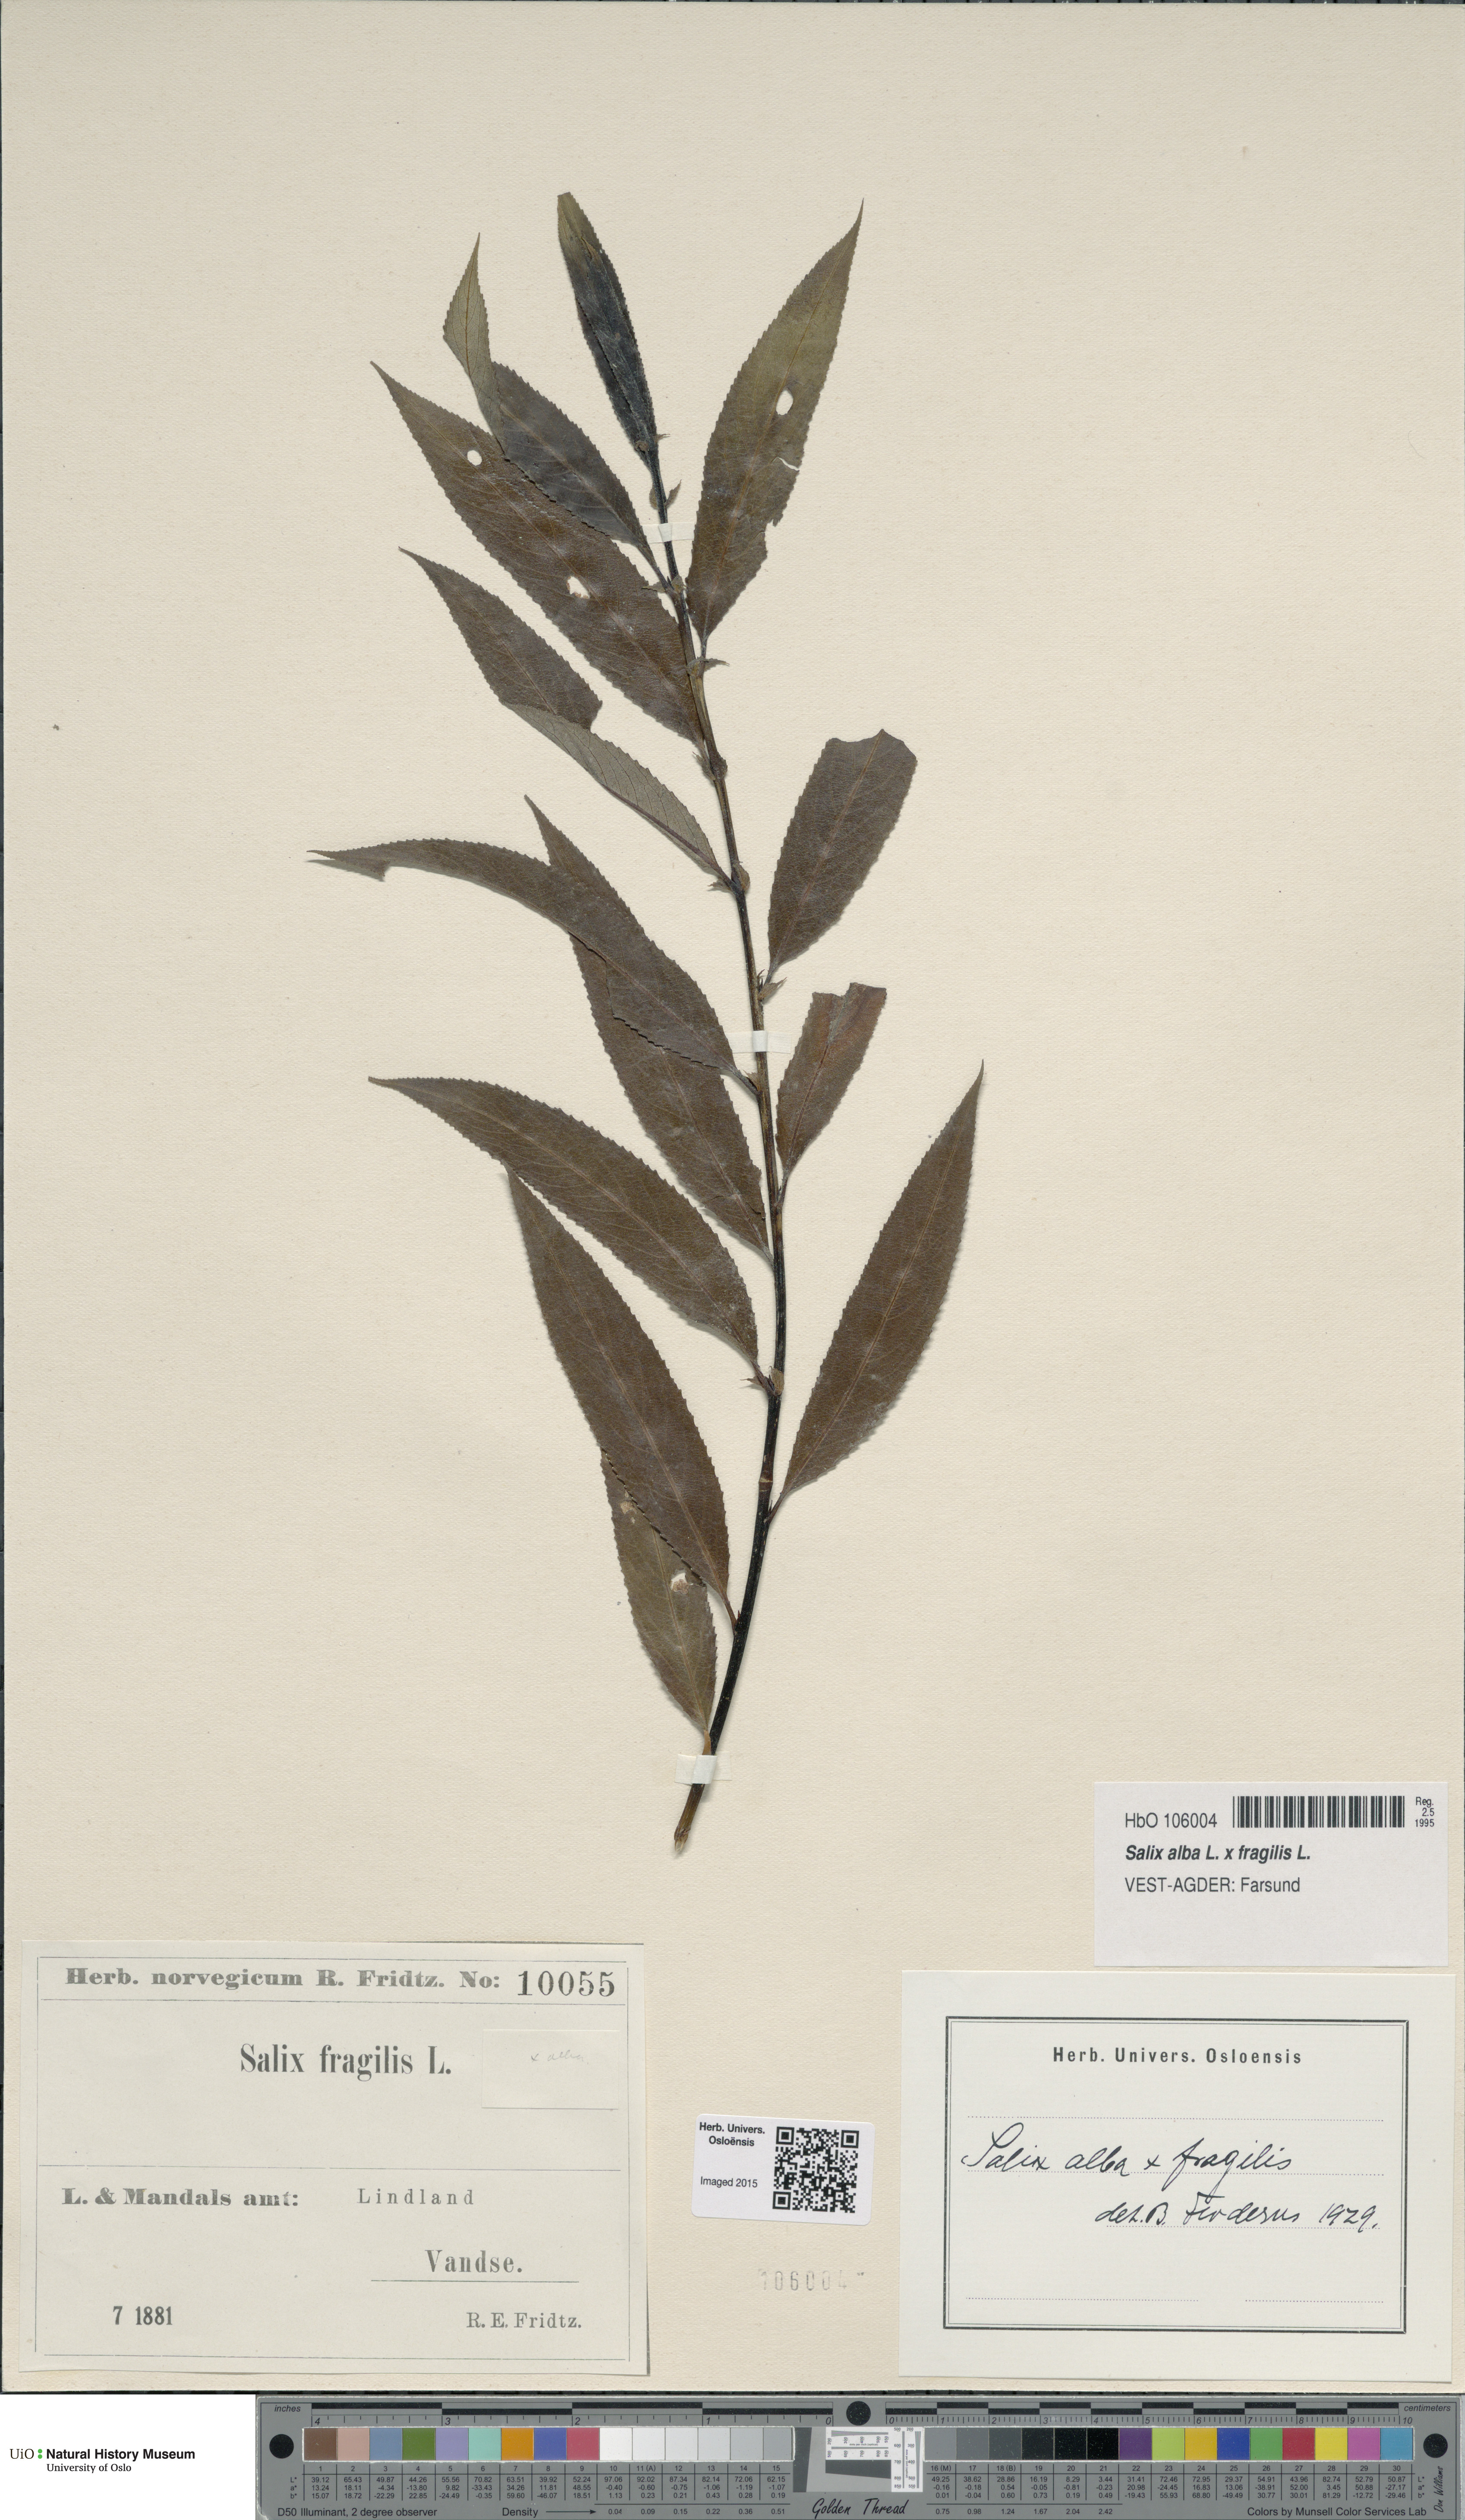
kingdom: Plantae
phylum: Tracheophyta
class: Magnoliopsida
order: Malpighiales
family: Salicaceae
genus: Salix
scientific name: Salix
